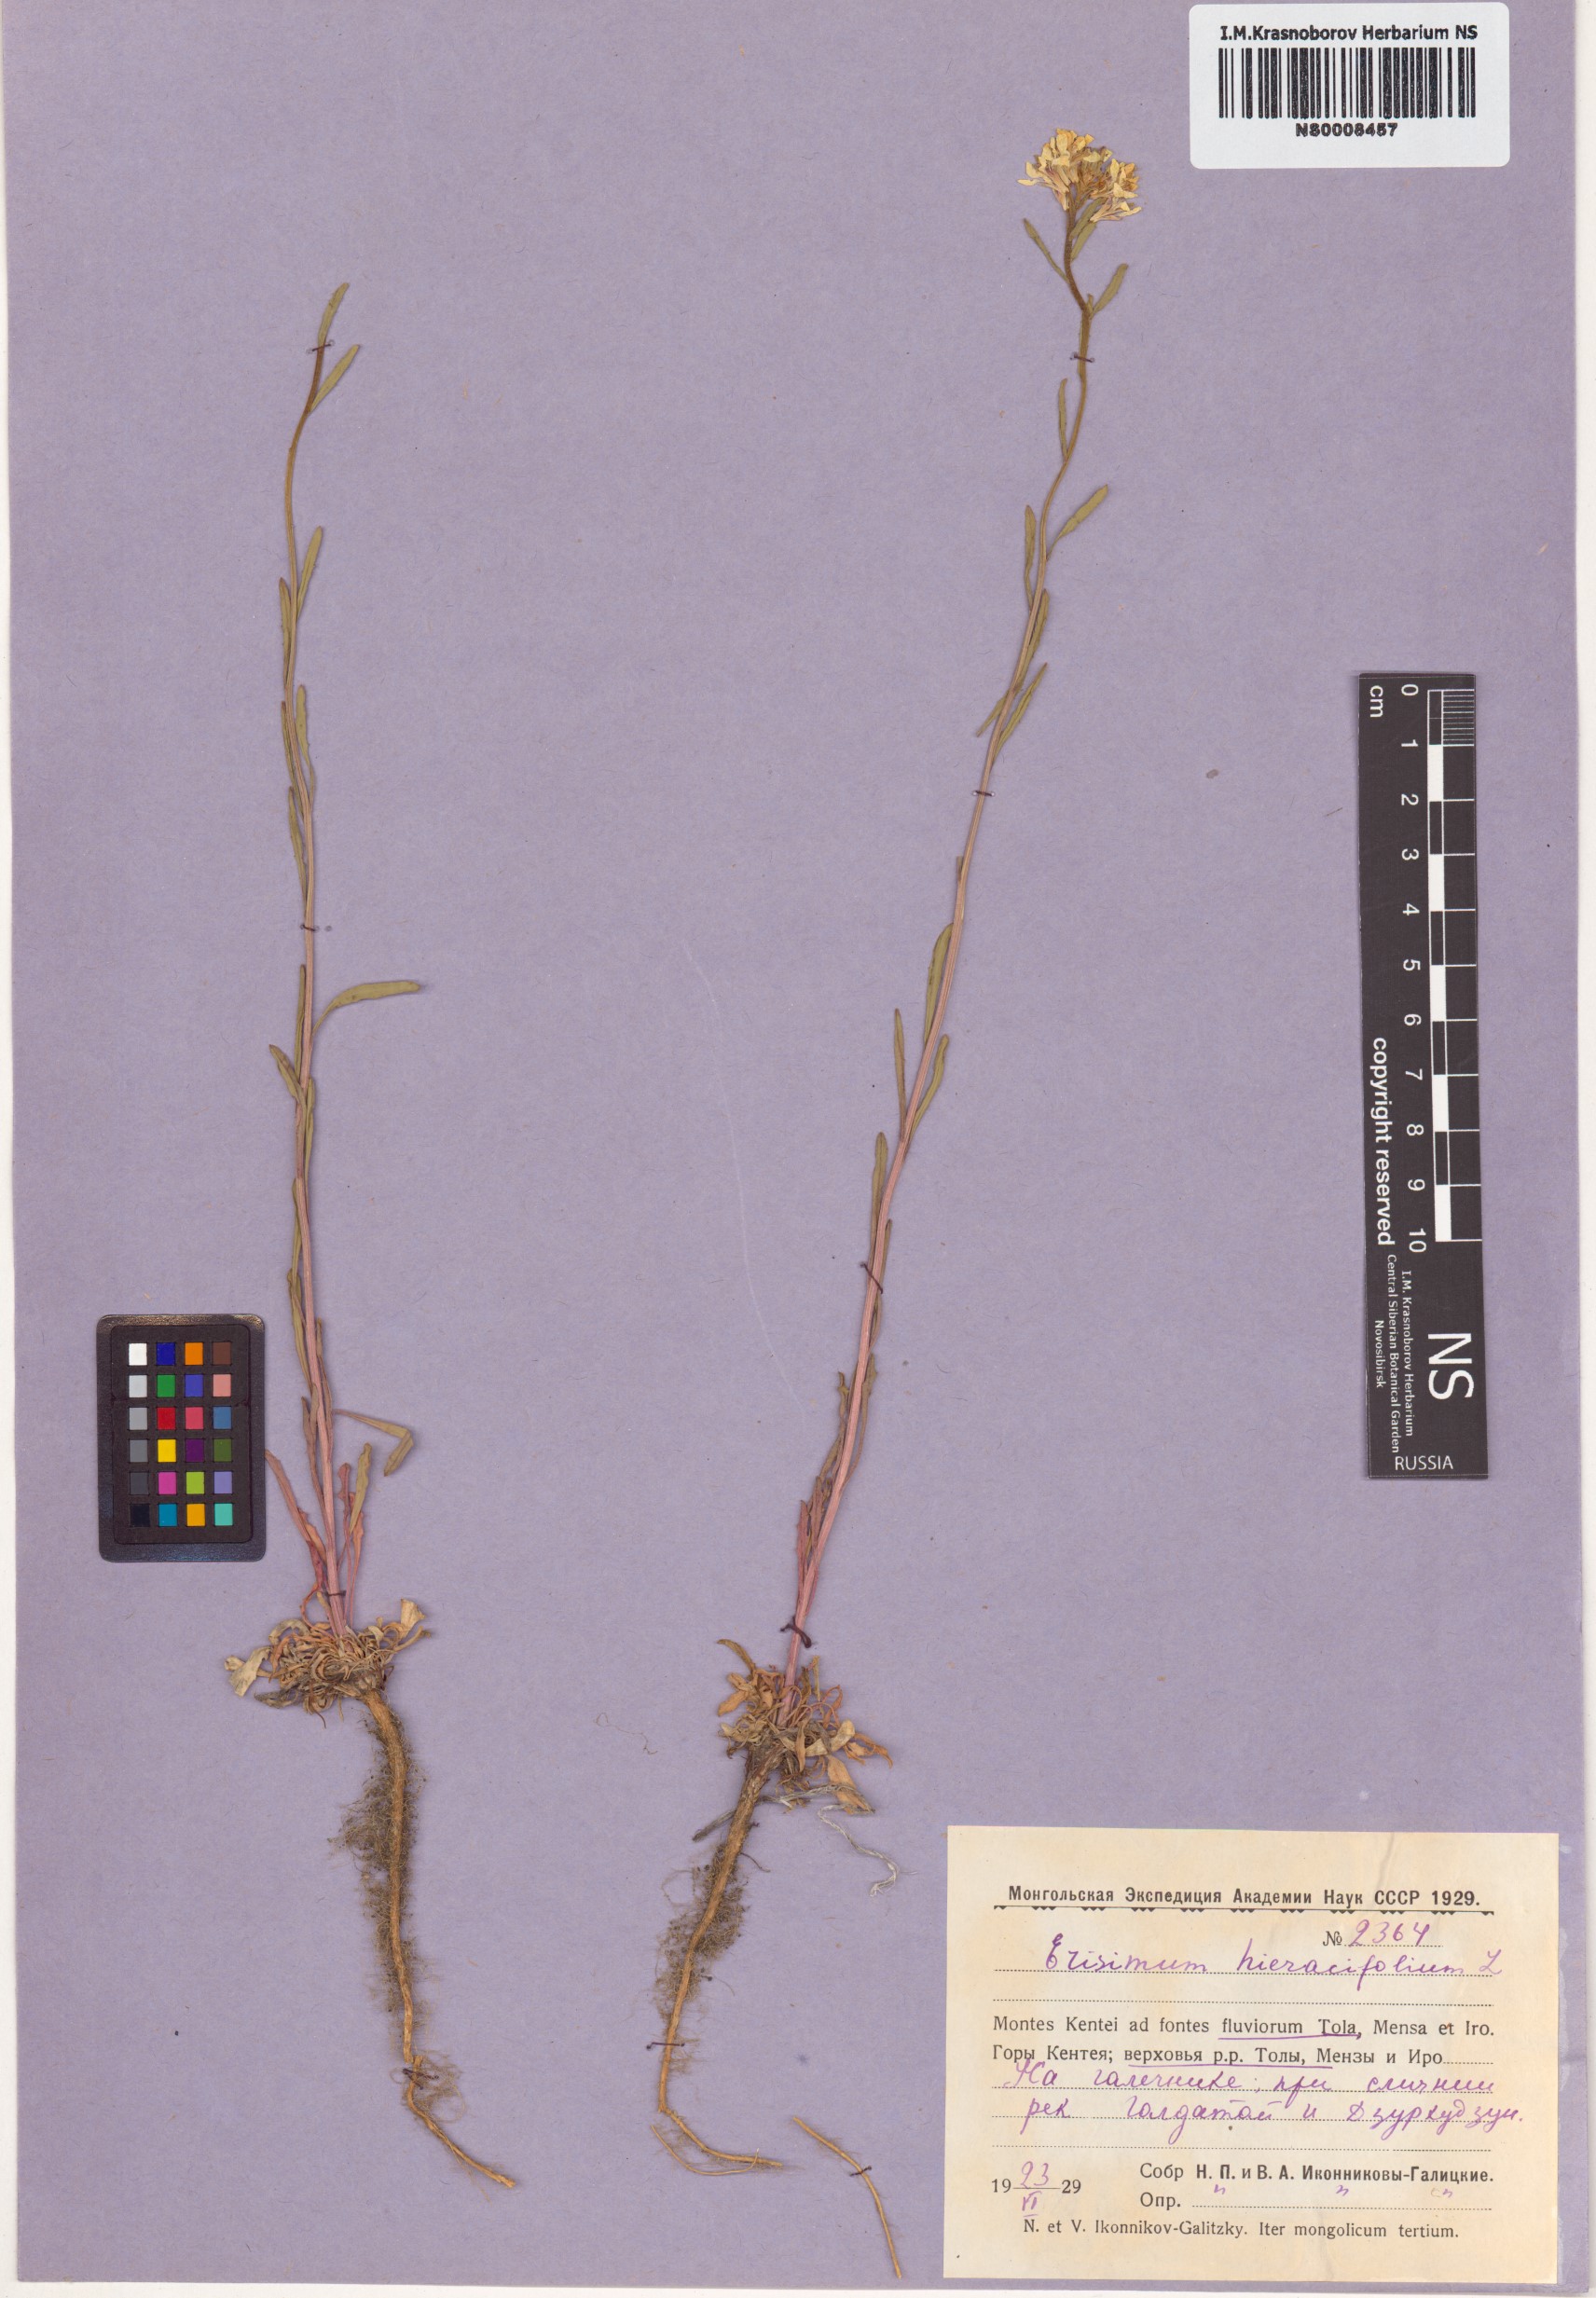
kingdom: Plantae
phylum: Tracheophyta
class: Magnoliopsida
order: Brassicales
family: Brassicaceae
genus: Erysimum
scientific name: Erysimum hieraciifolium
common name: European wallflower
